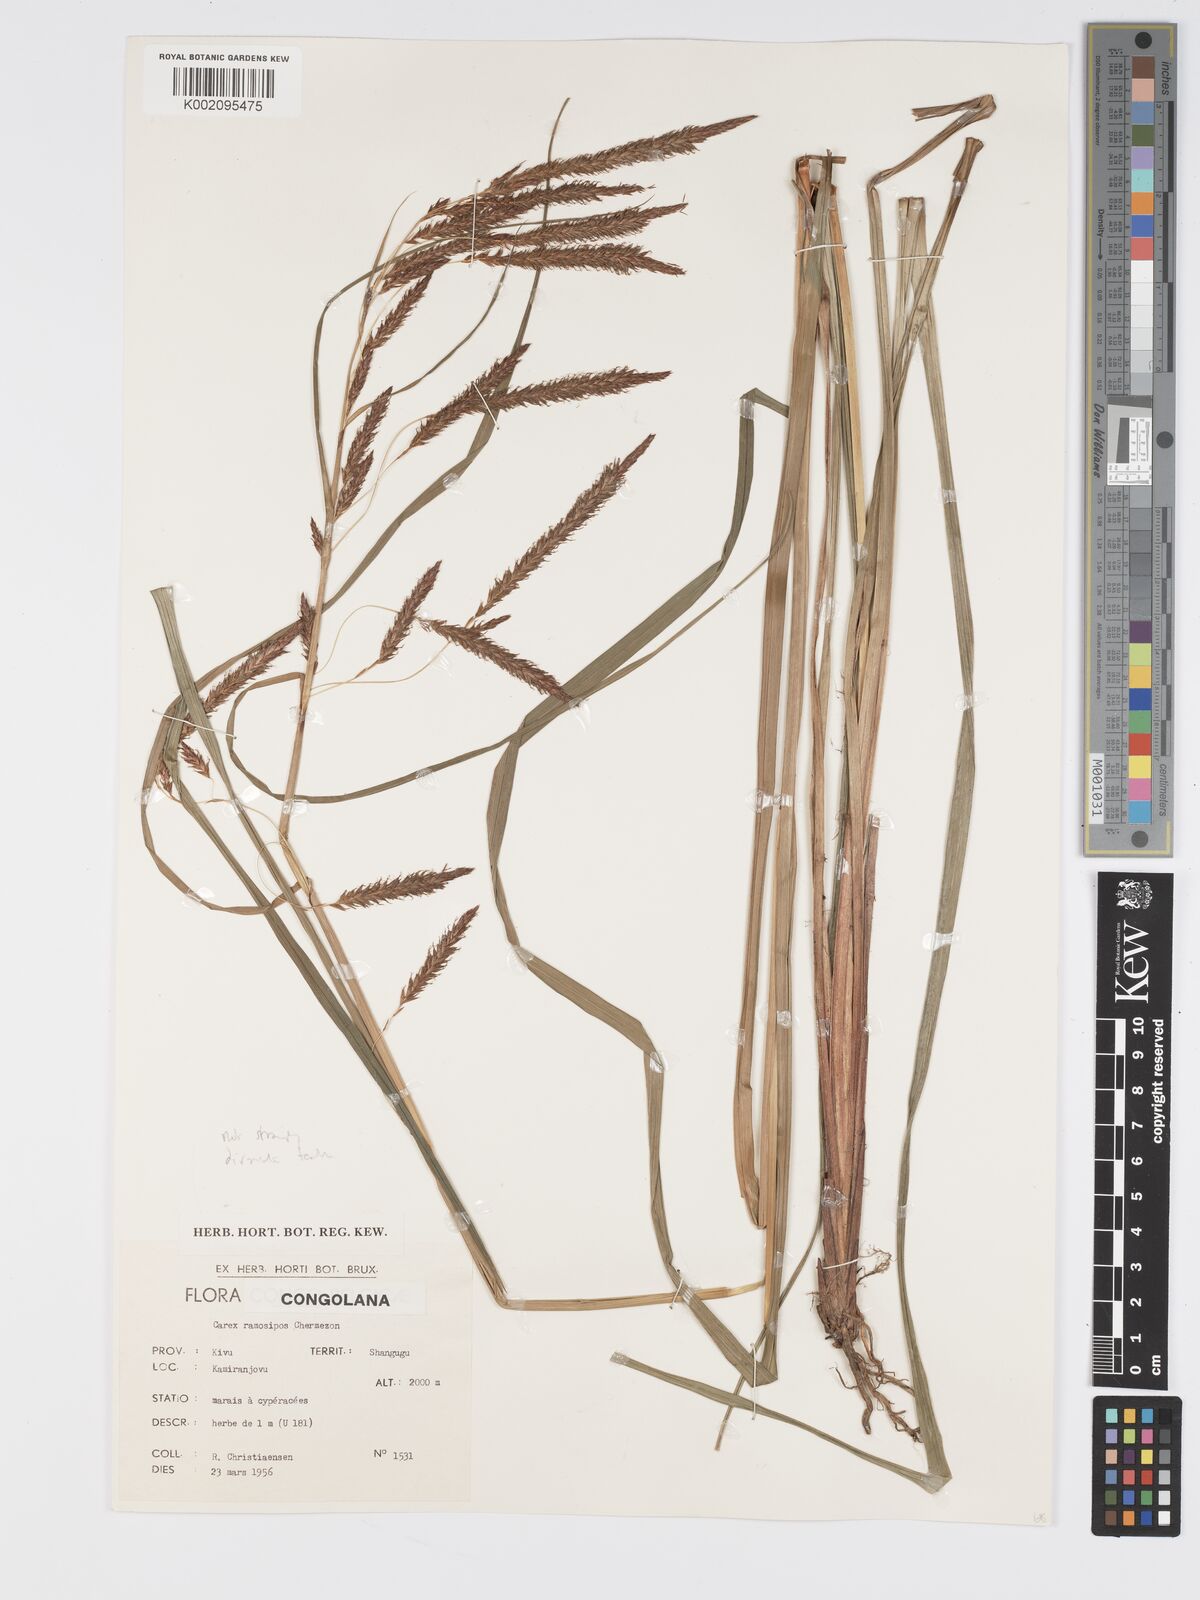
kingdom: Plantae
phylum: Tracheophyta
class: Liliopsida
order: Poales
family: Cyperaceae
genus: Carex
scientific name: Carex mildbraediana
